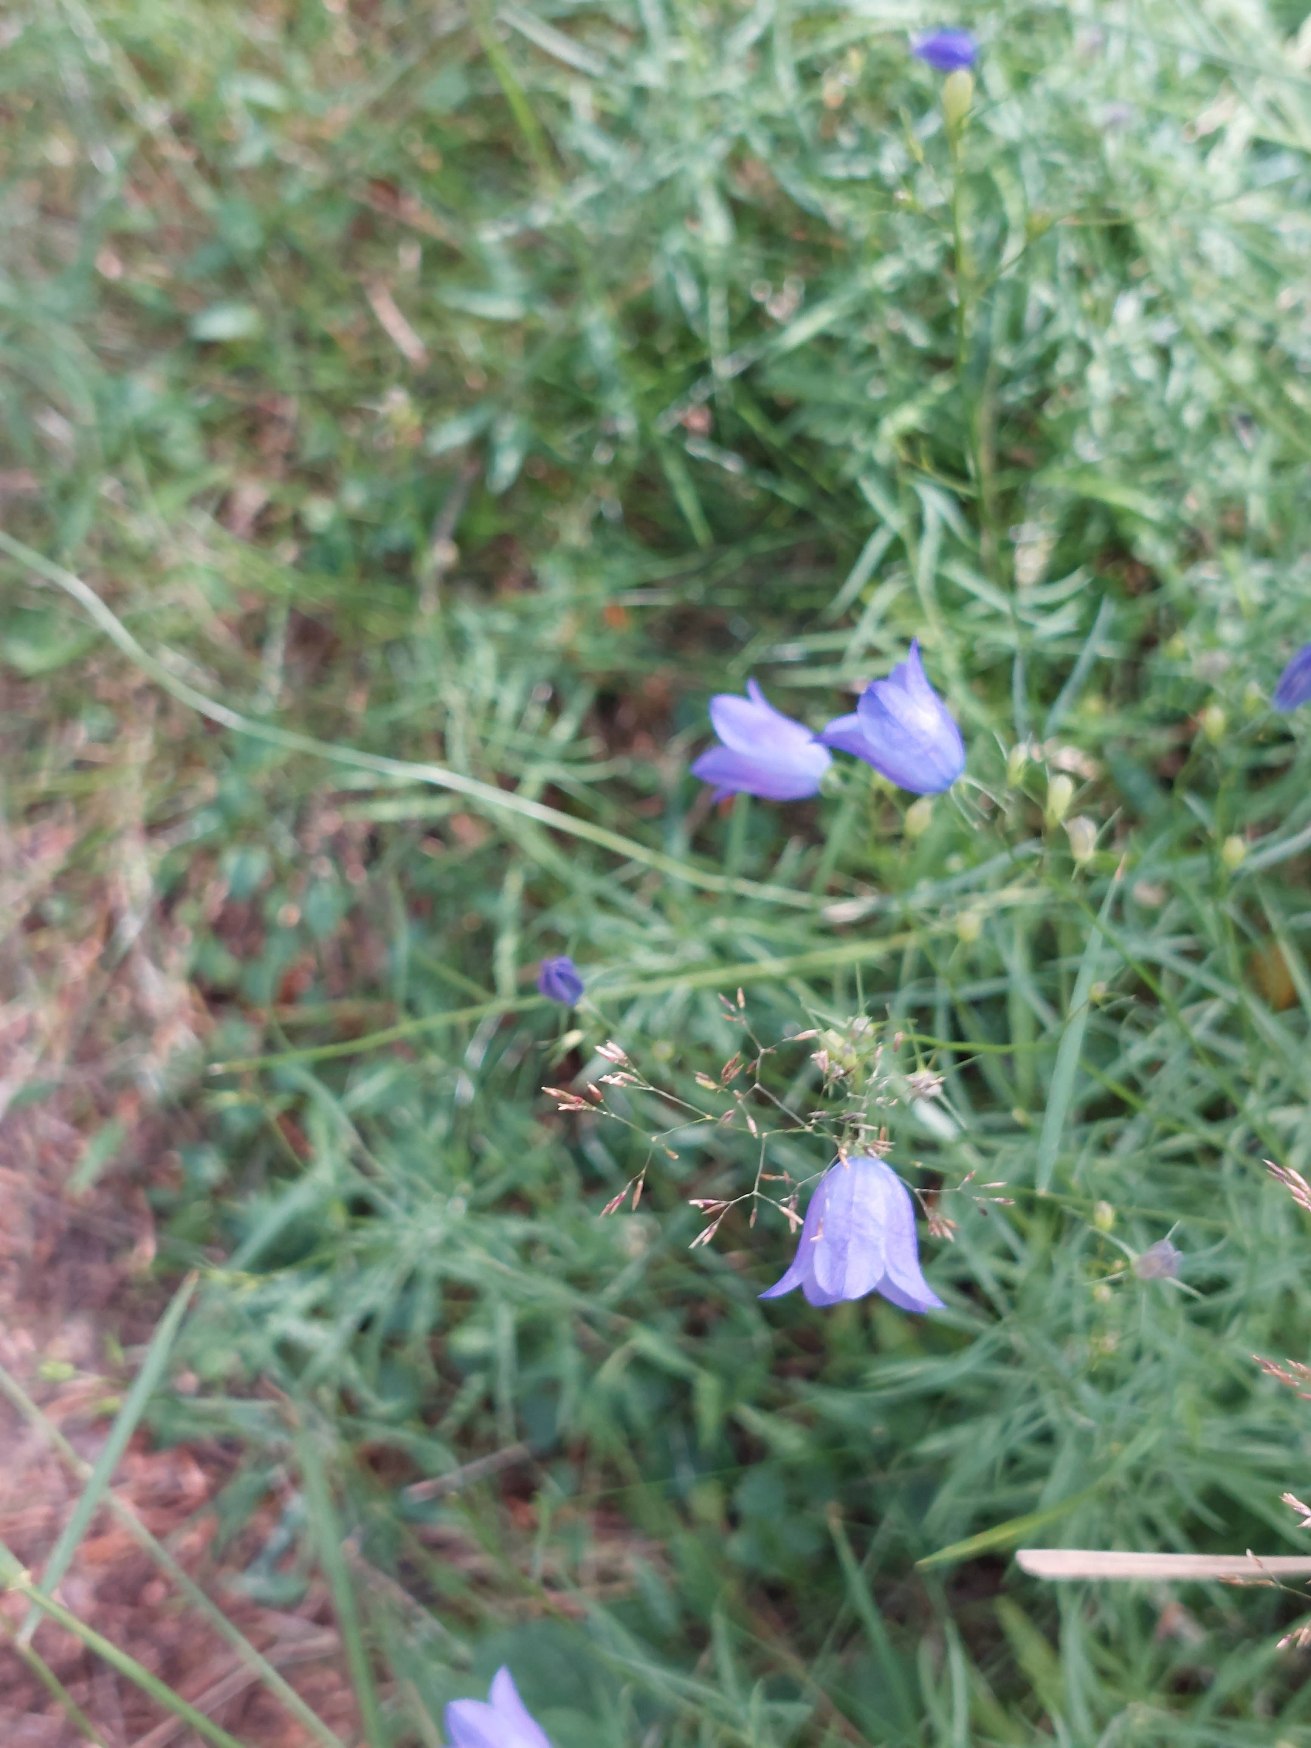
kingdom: Plantae
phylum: Tracheophyta
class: Magnoliopsida
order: Asterales
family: Campanulaceae
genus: Campanula
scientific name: Campanula rotundifolia
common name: Liden klokke
